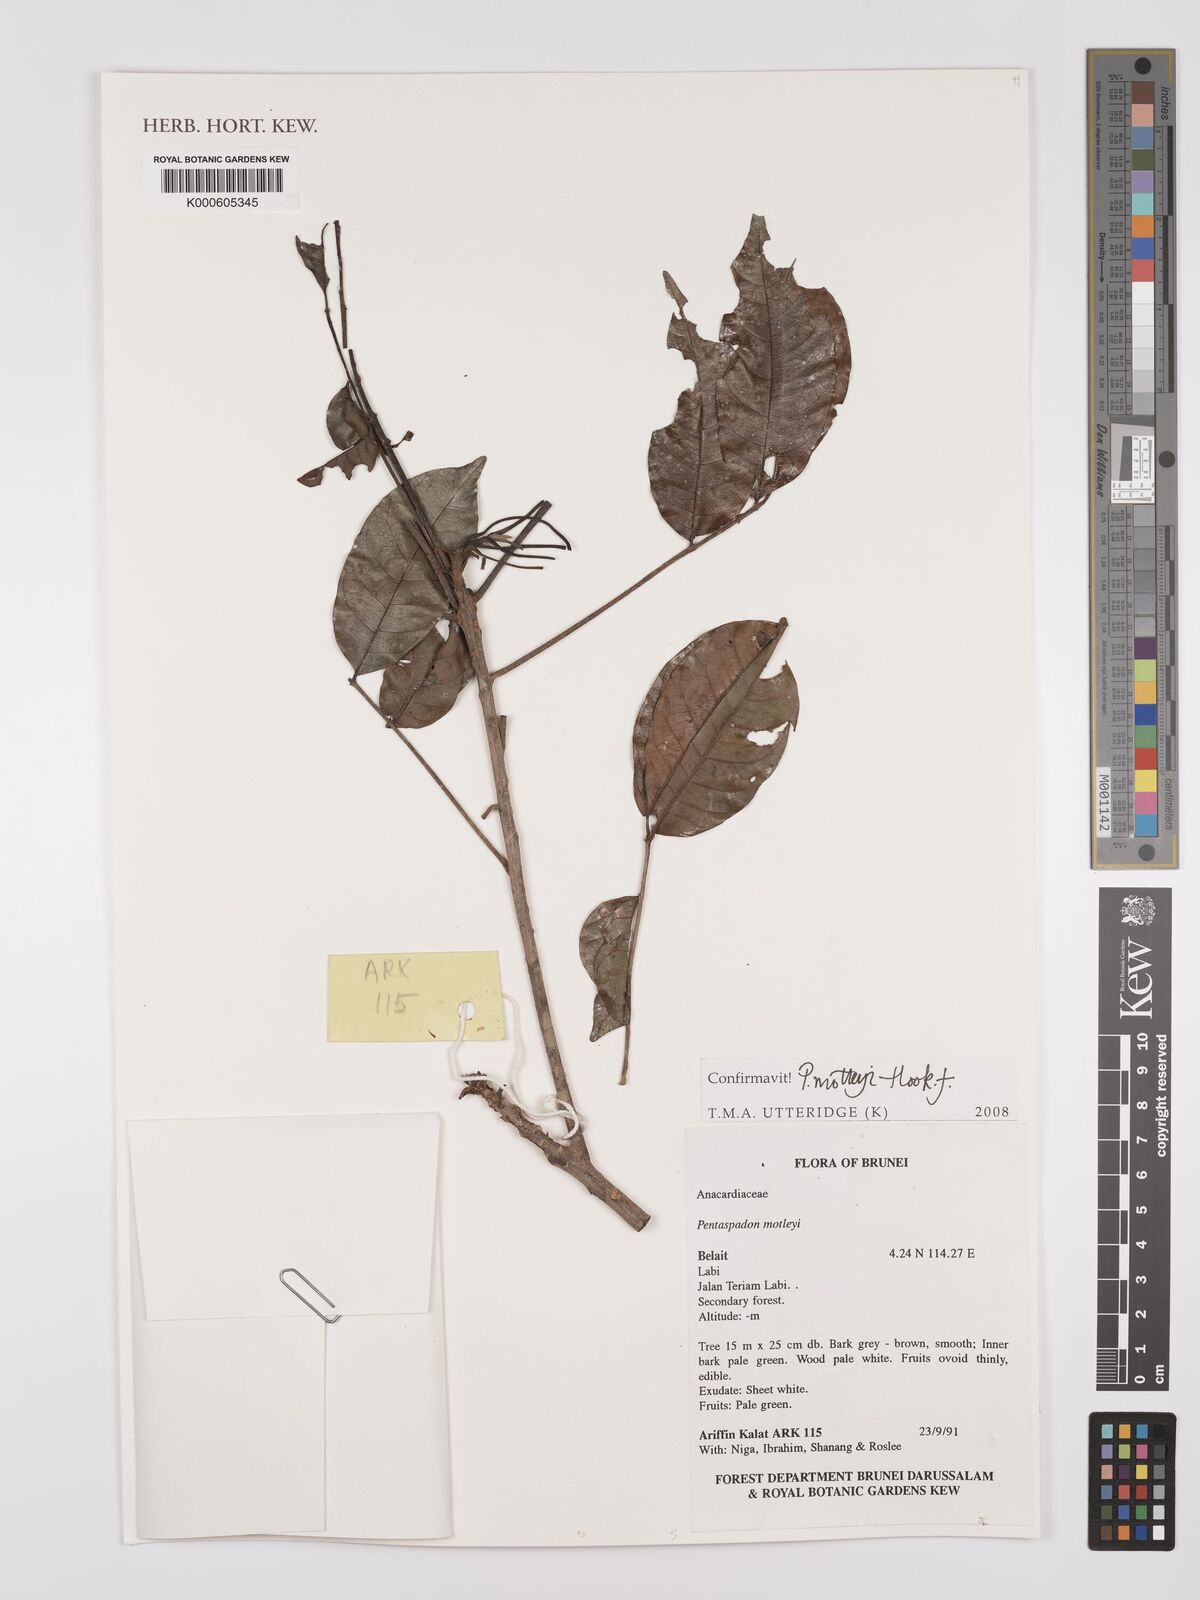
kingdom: Plantae
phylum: Tracheophyta
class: Magnoliopsida
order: Sapindales
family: Anacardiaceae
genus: Pentaspadon
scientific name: Pentaspadon motleyi
